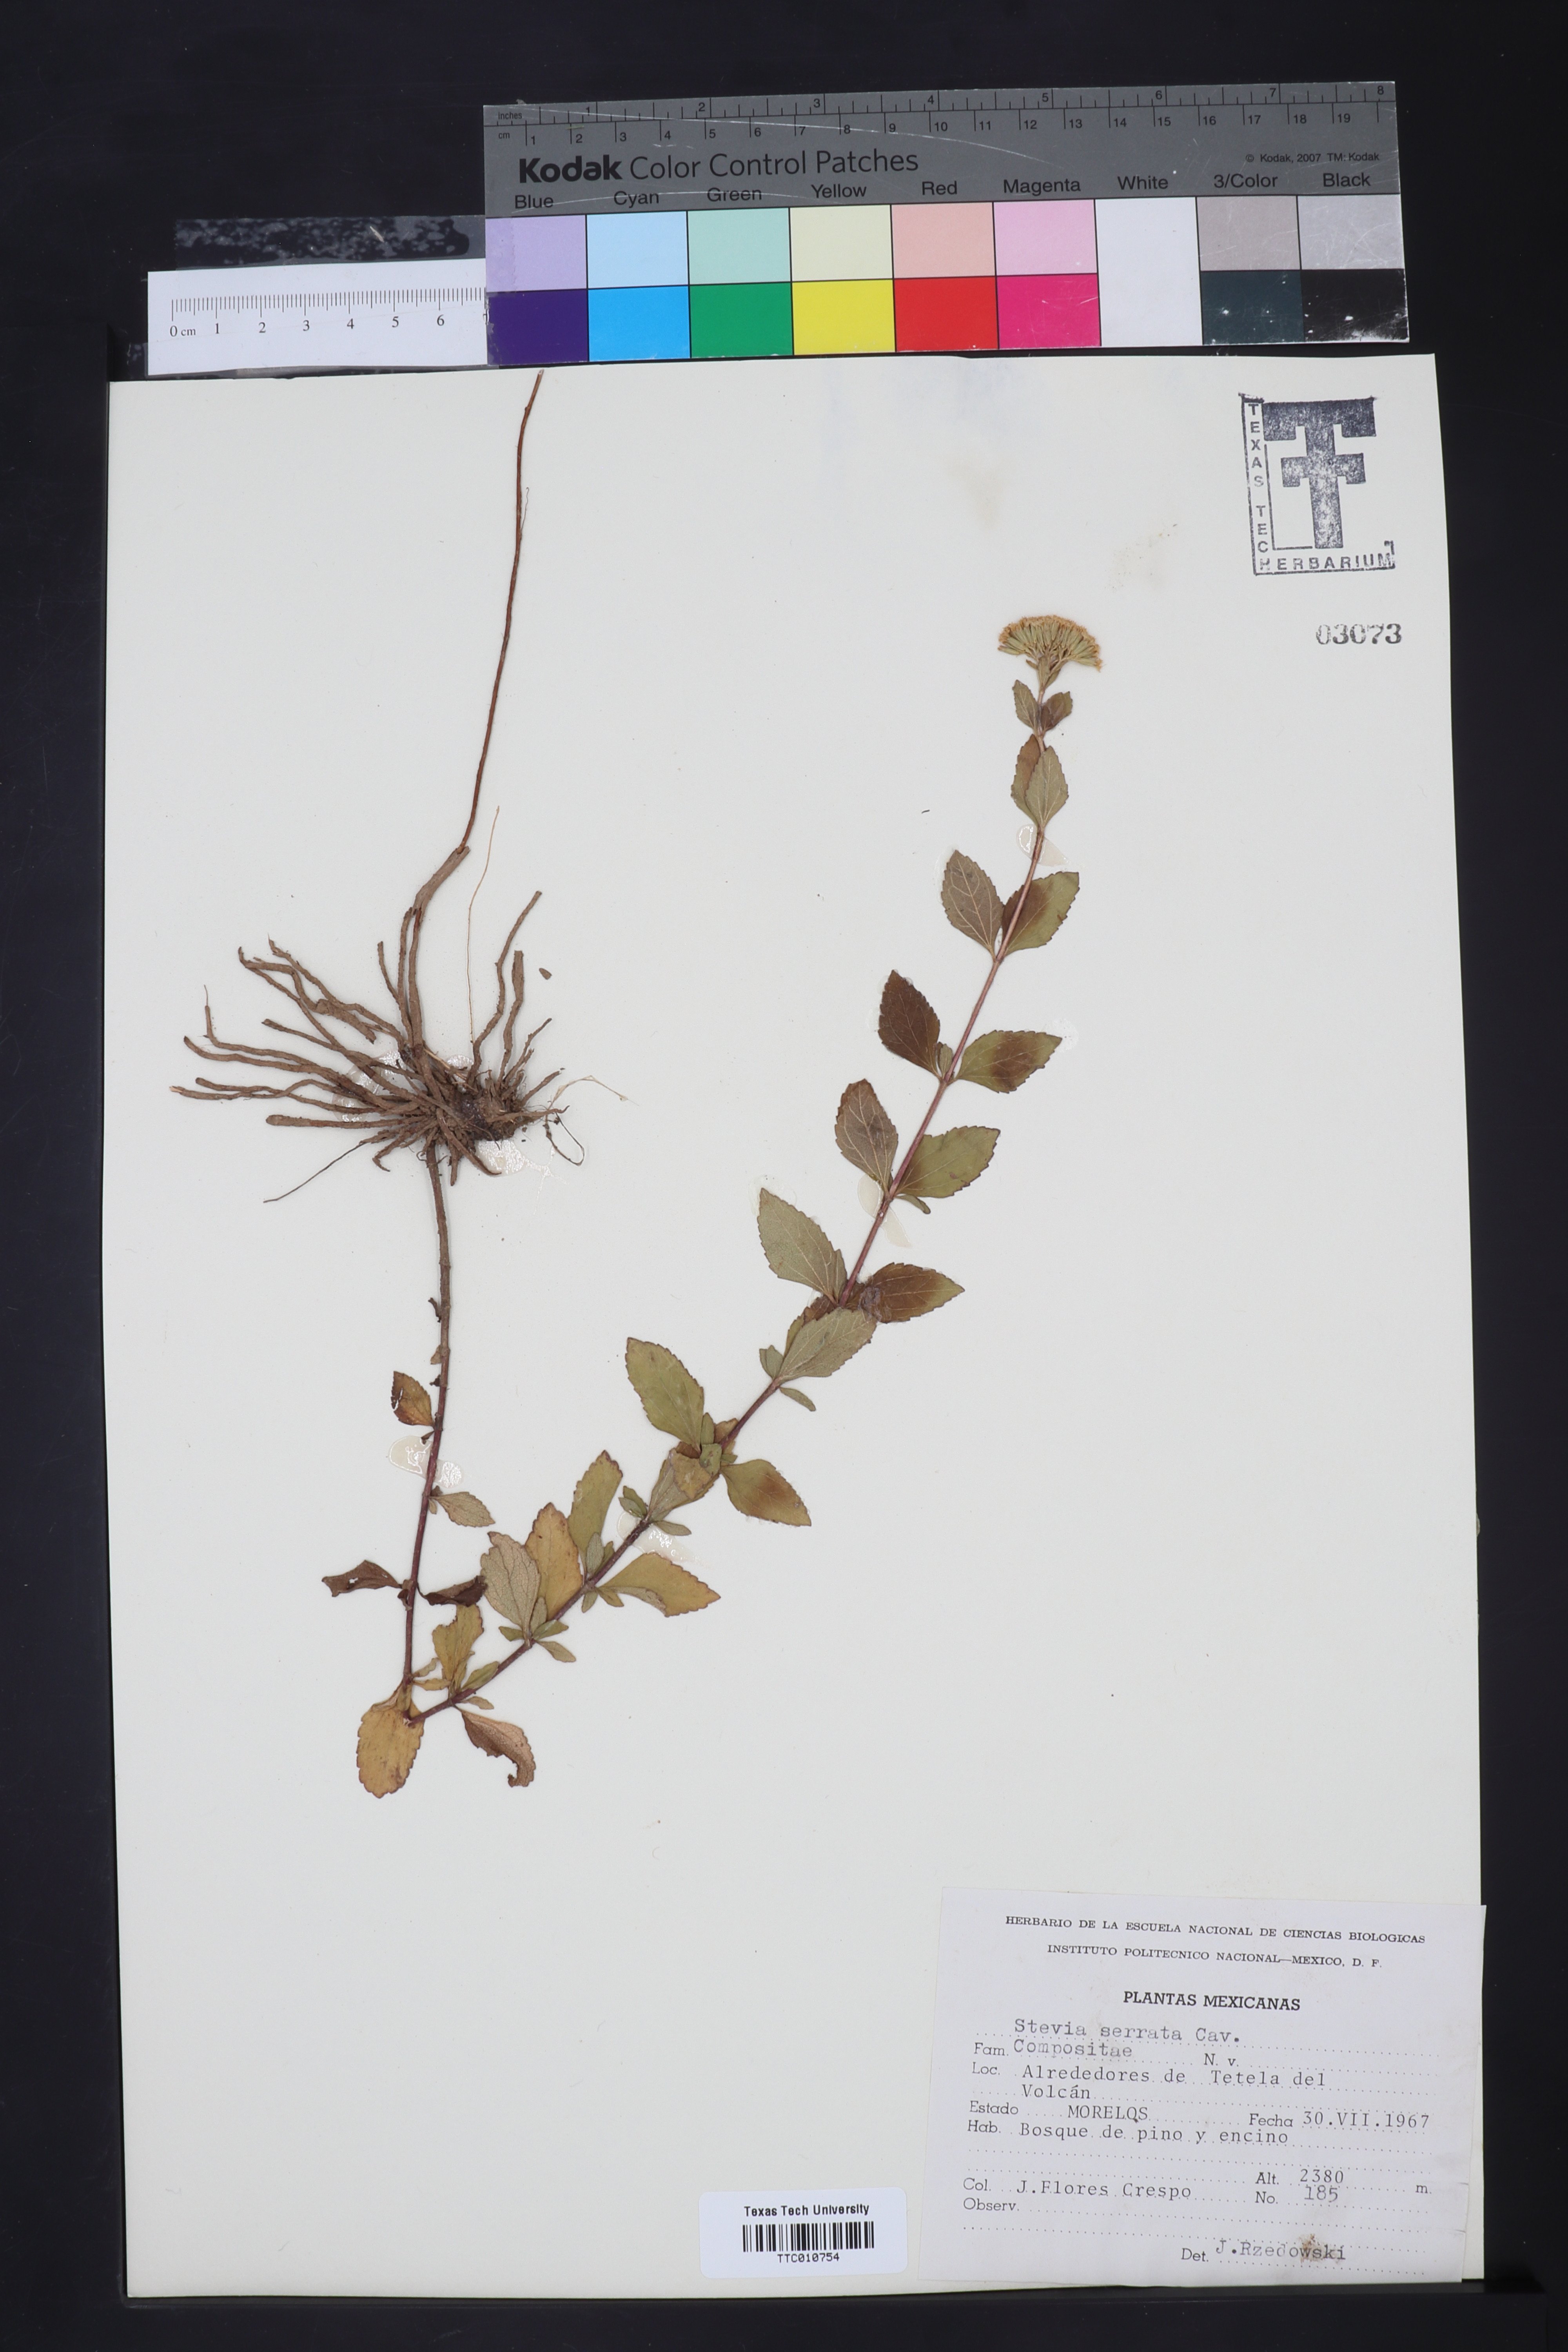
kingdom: Plantae
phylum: Tracheophyta
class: Magnoliopsida
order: Asterales
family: Asteraceae
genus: Stevia
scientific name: Stevia serrata
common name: Sawtooth candyleaf
